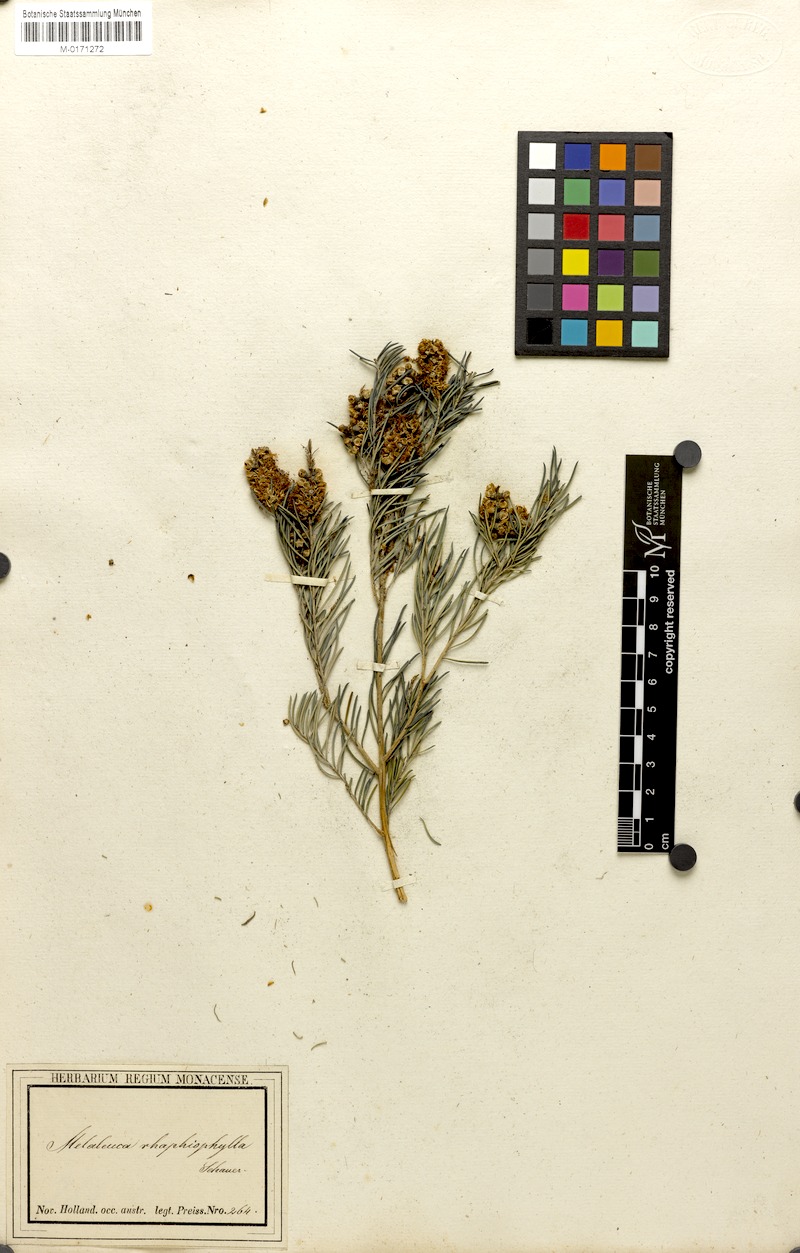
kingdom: Plantae
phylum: Tracheophyta
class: Magnoliopsida
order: Myrtales
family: Myrtaceae
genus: Melaleuca
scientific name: Melaleuca rhaphiophylla
